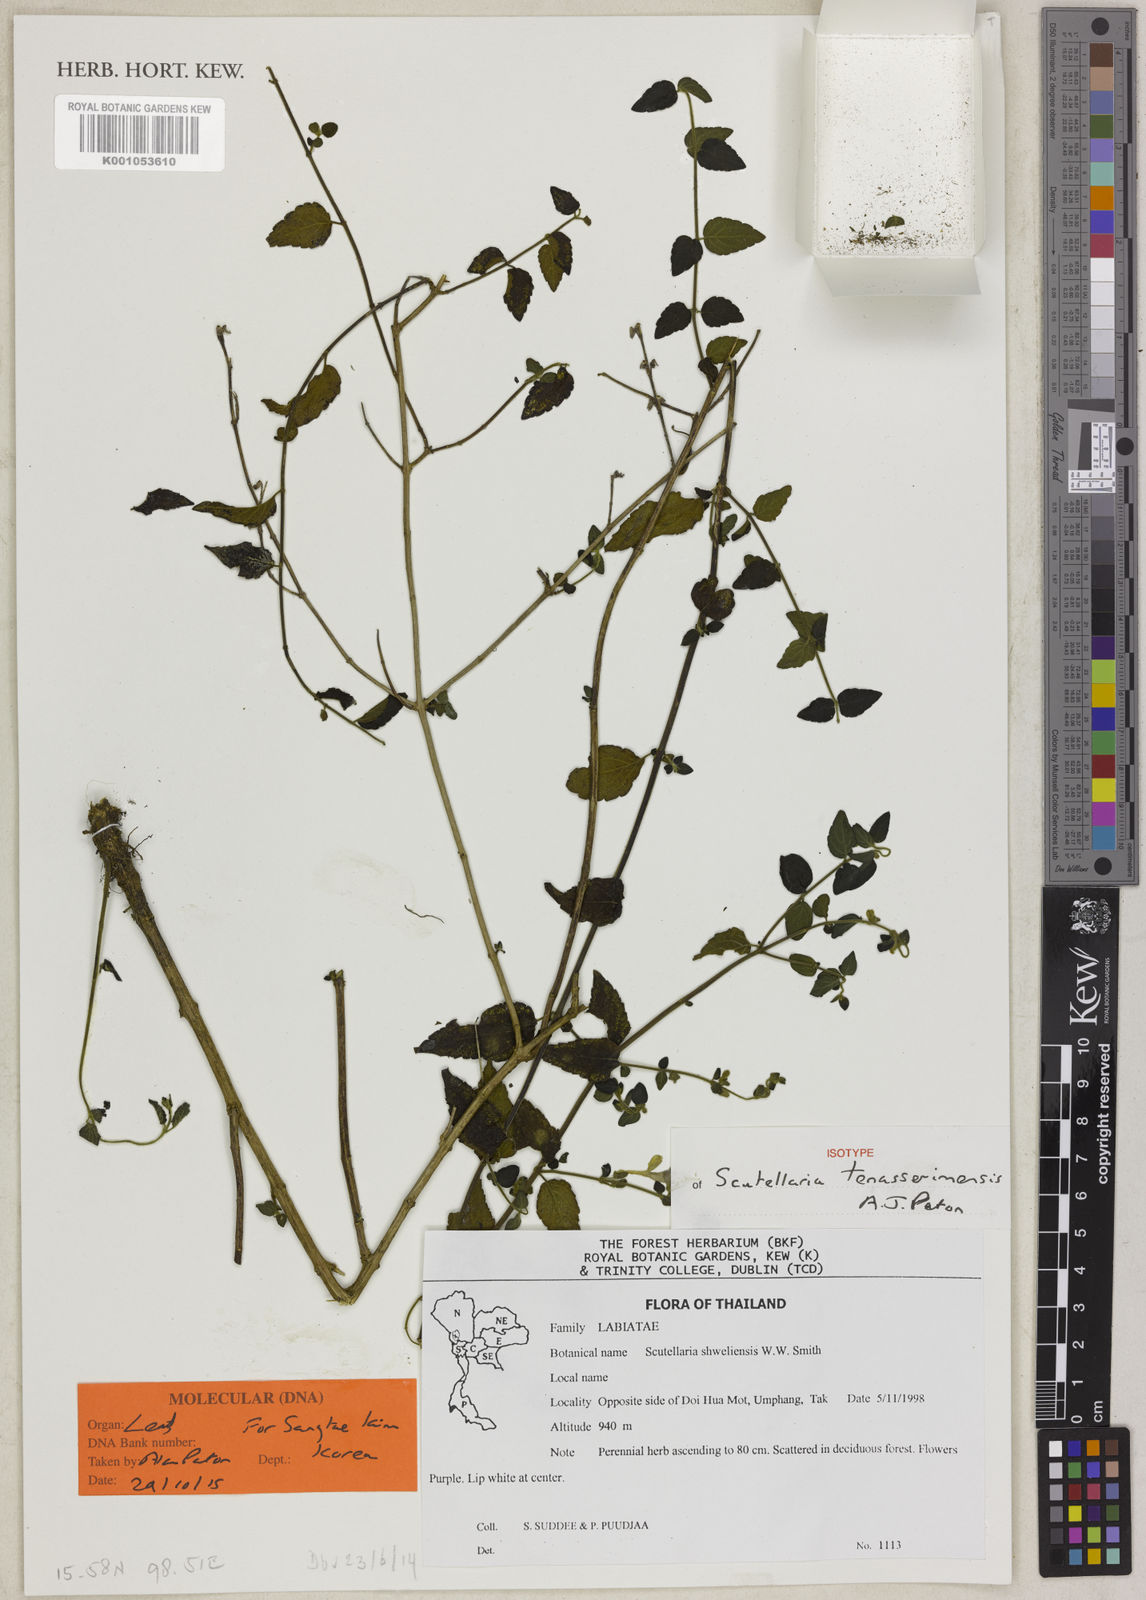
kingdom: Plantae
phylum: Tracheophyta
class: Magnoliopsida
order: Lamiales
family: Lamiaceae
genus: Scutellaria
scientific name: Scutellaria tenasserimensis
